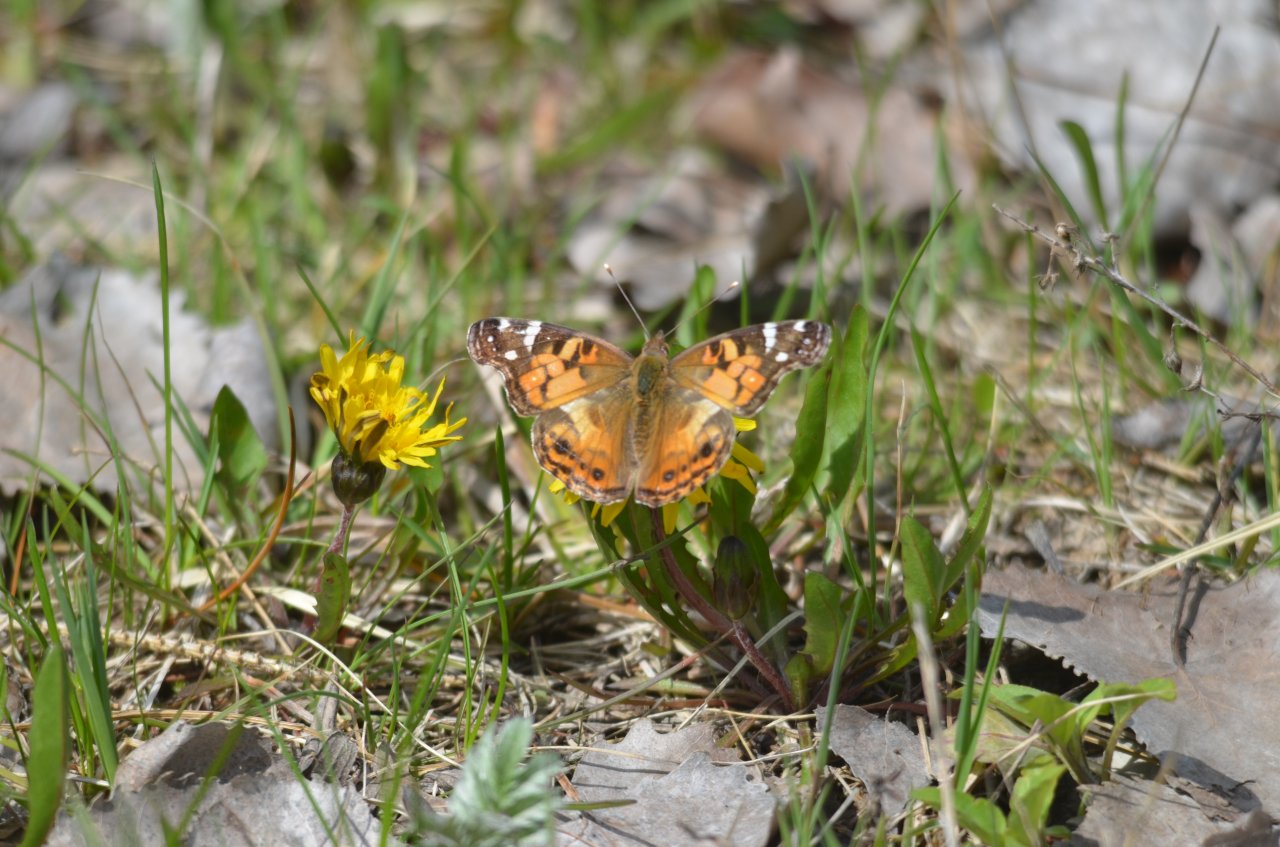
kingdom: Animalia
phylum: Arthropoda
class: Insecta
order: Lepidoptera
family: Nymphalidae
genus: Vanessa
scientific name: Vanessa virginiensis
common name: American Lady
